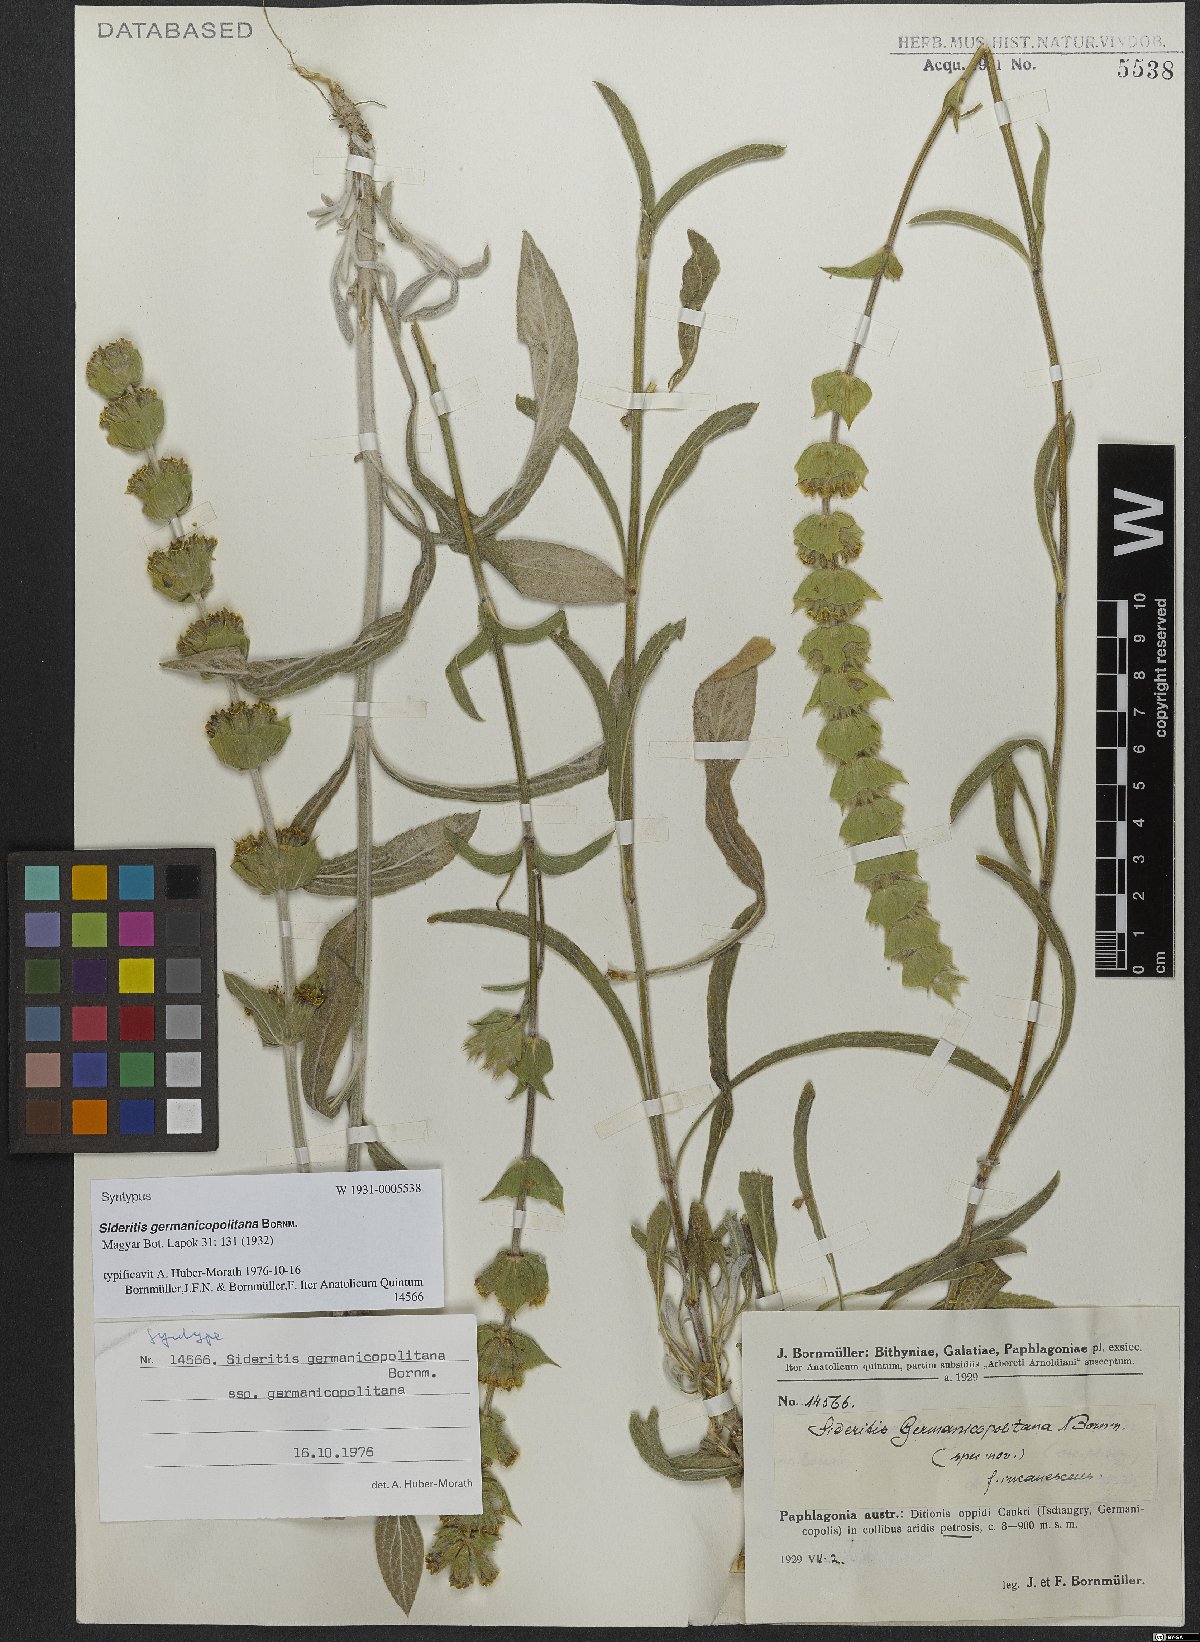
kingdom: Plantae
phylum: Tracheophyta
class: Magnoliopsida
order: Lamiales
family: Lamiaceae
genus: Sideritis
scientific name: Sideritis germanicopolitana
